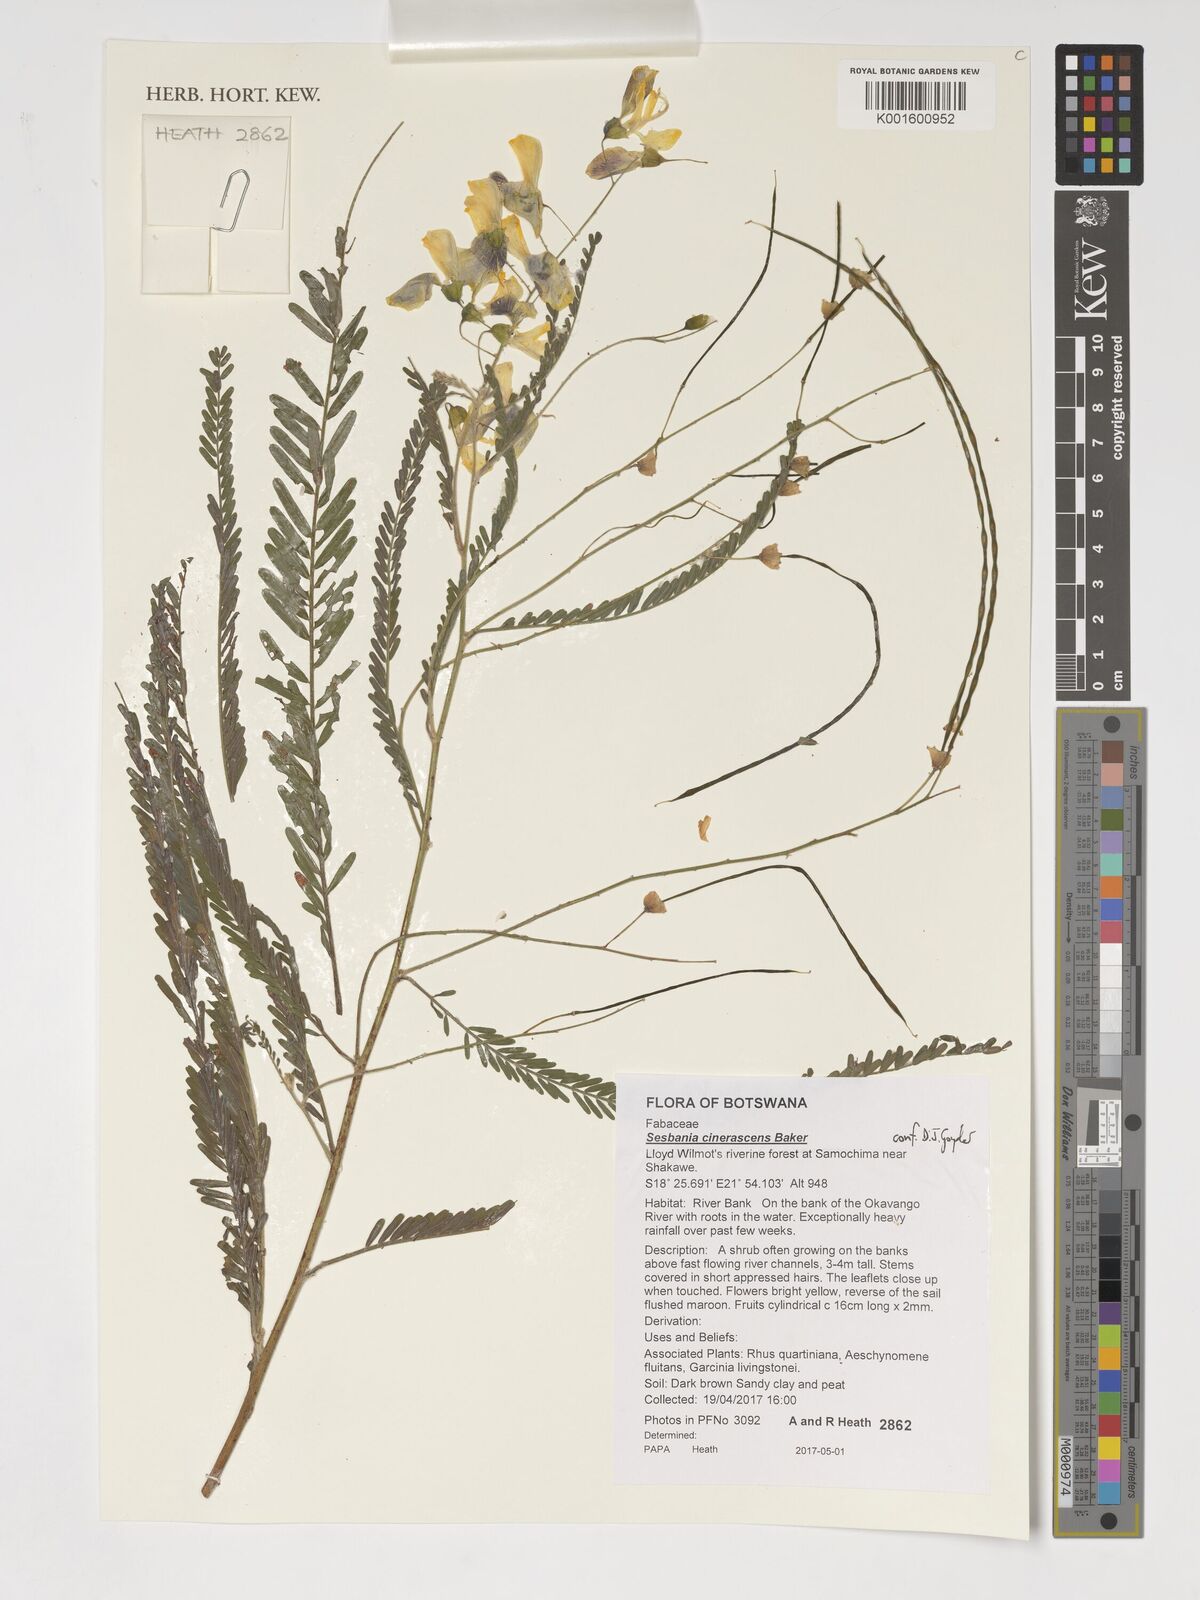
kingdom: Plantae
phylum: Tracheophyta
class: Magnoliopsida
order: Fabales
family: Fabaceae
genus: Sesbania
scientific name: Sesbania cinerascens
